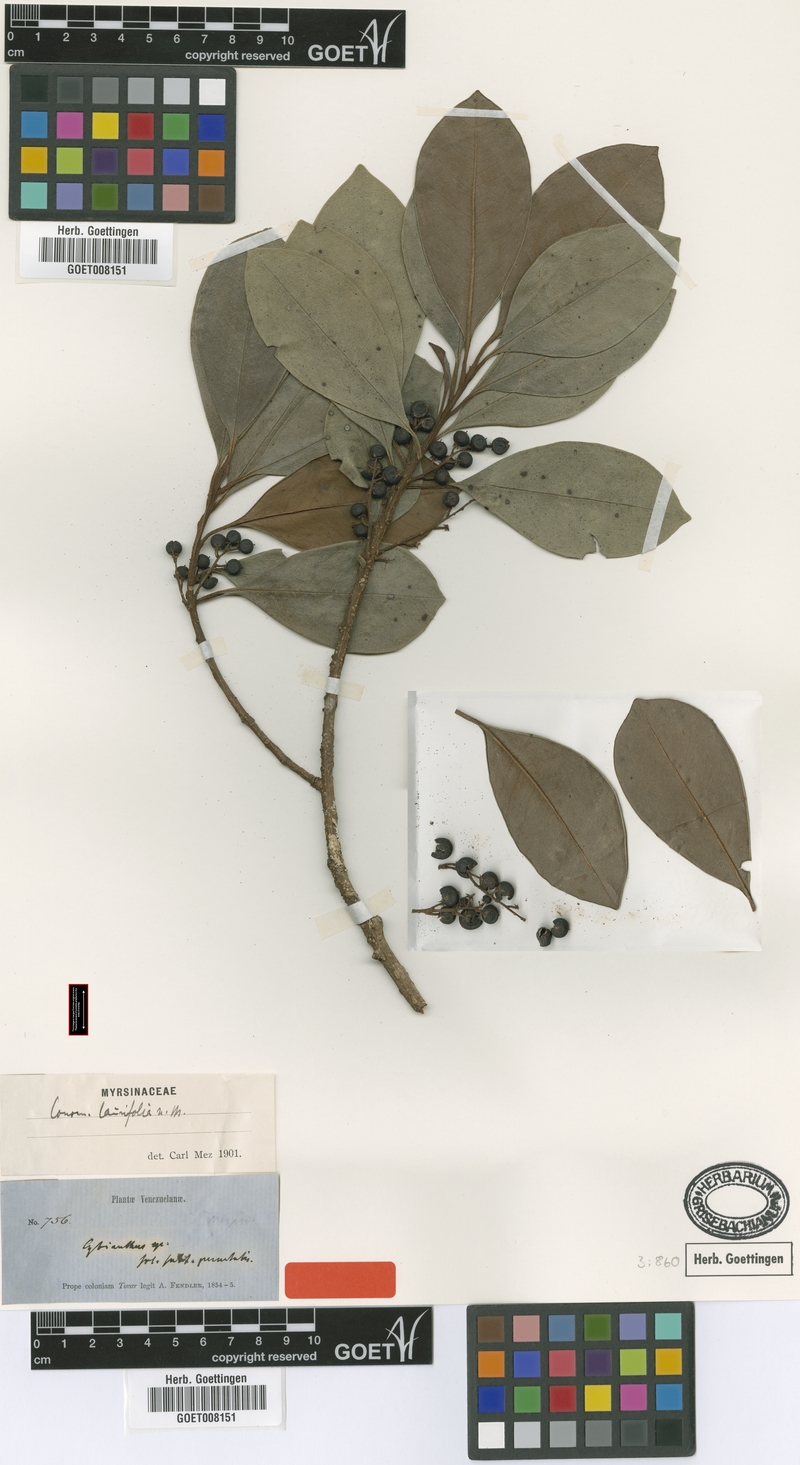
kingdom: Plantae
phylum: Tracheophyta
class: Magnoliopsida
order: Ericales
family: Primulaceae
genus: Cybianthus
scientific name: Cybianthus laurifolius
